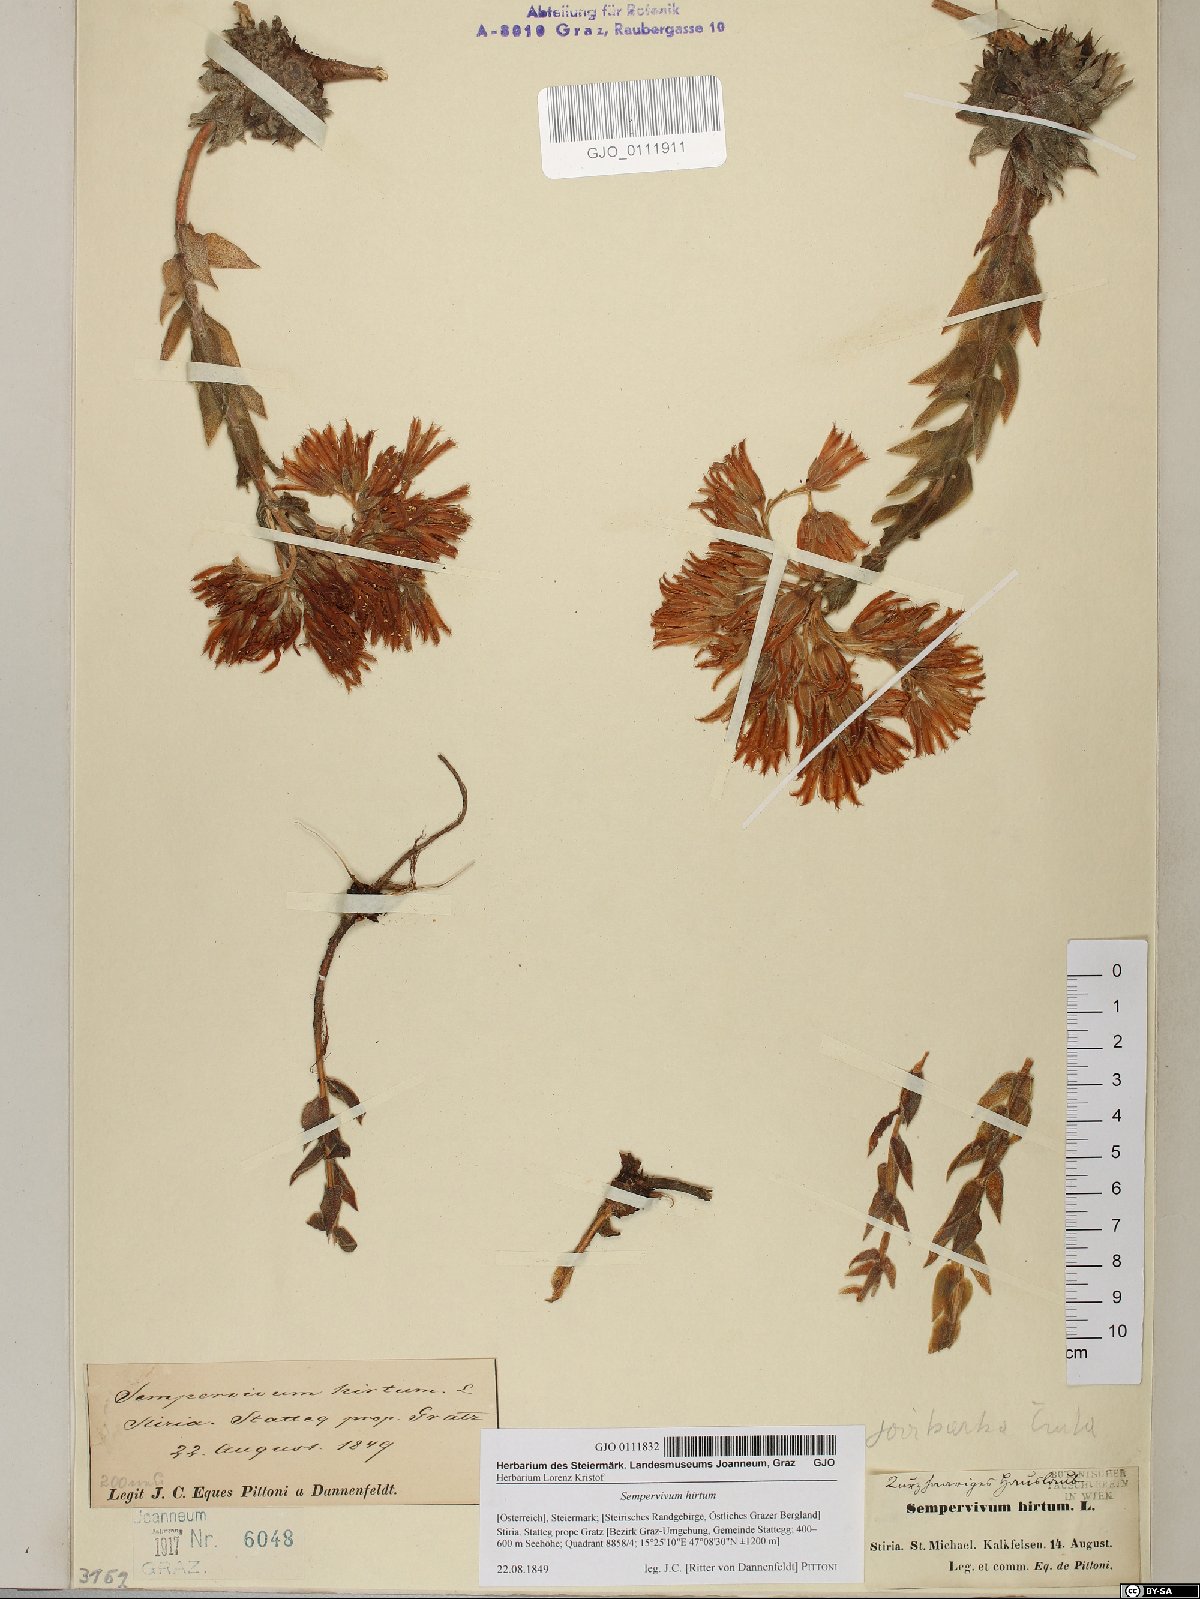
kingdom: Plantae
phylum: Tracheophyta
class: Magnoliopsida
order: Saxifragales
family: Crassulaceae
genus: Sempervivum
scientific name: Sempervivum globiferum
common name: Rolling hen-and-chicks
